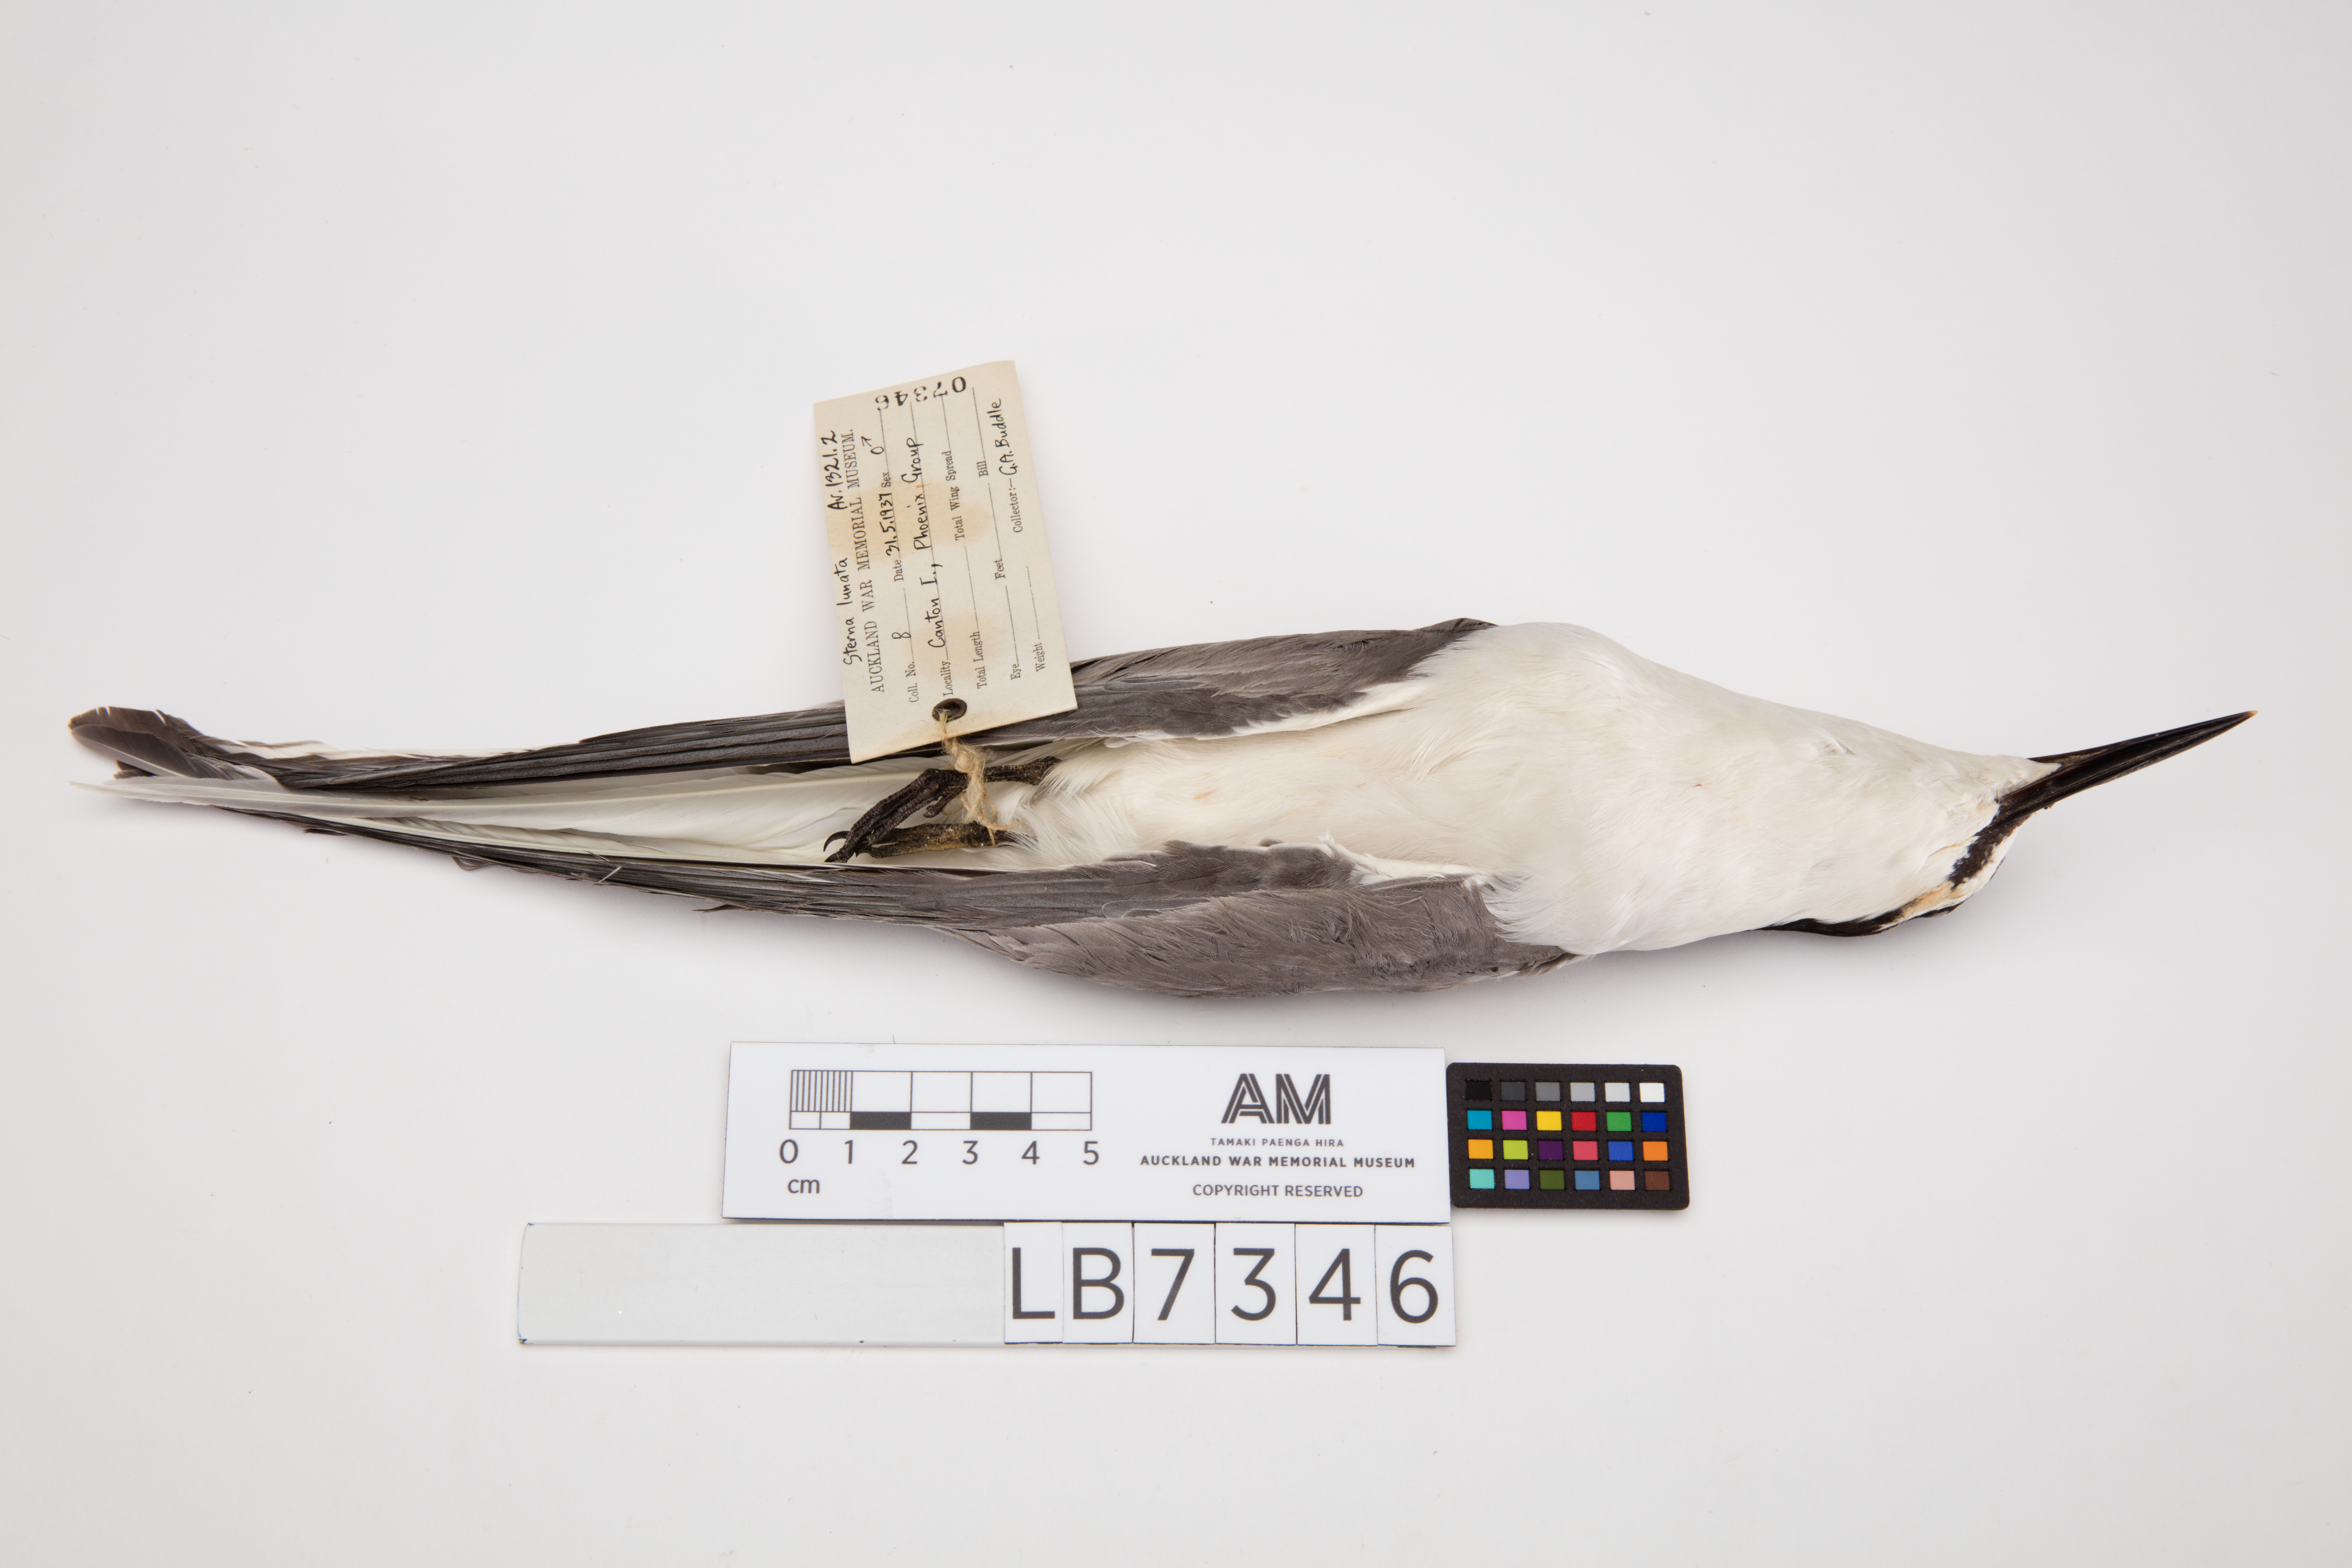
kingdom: Animalia
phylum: Chordata
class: Aves
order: Charadriiformes
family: Laridae
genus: Onychoprion
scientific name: Onychoprion lunatus
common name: Gray-backed tern
